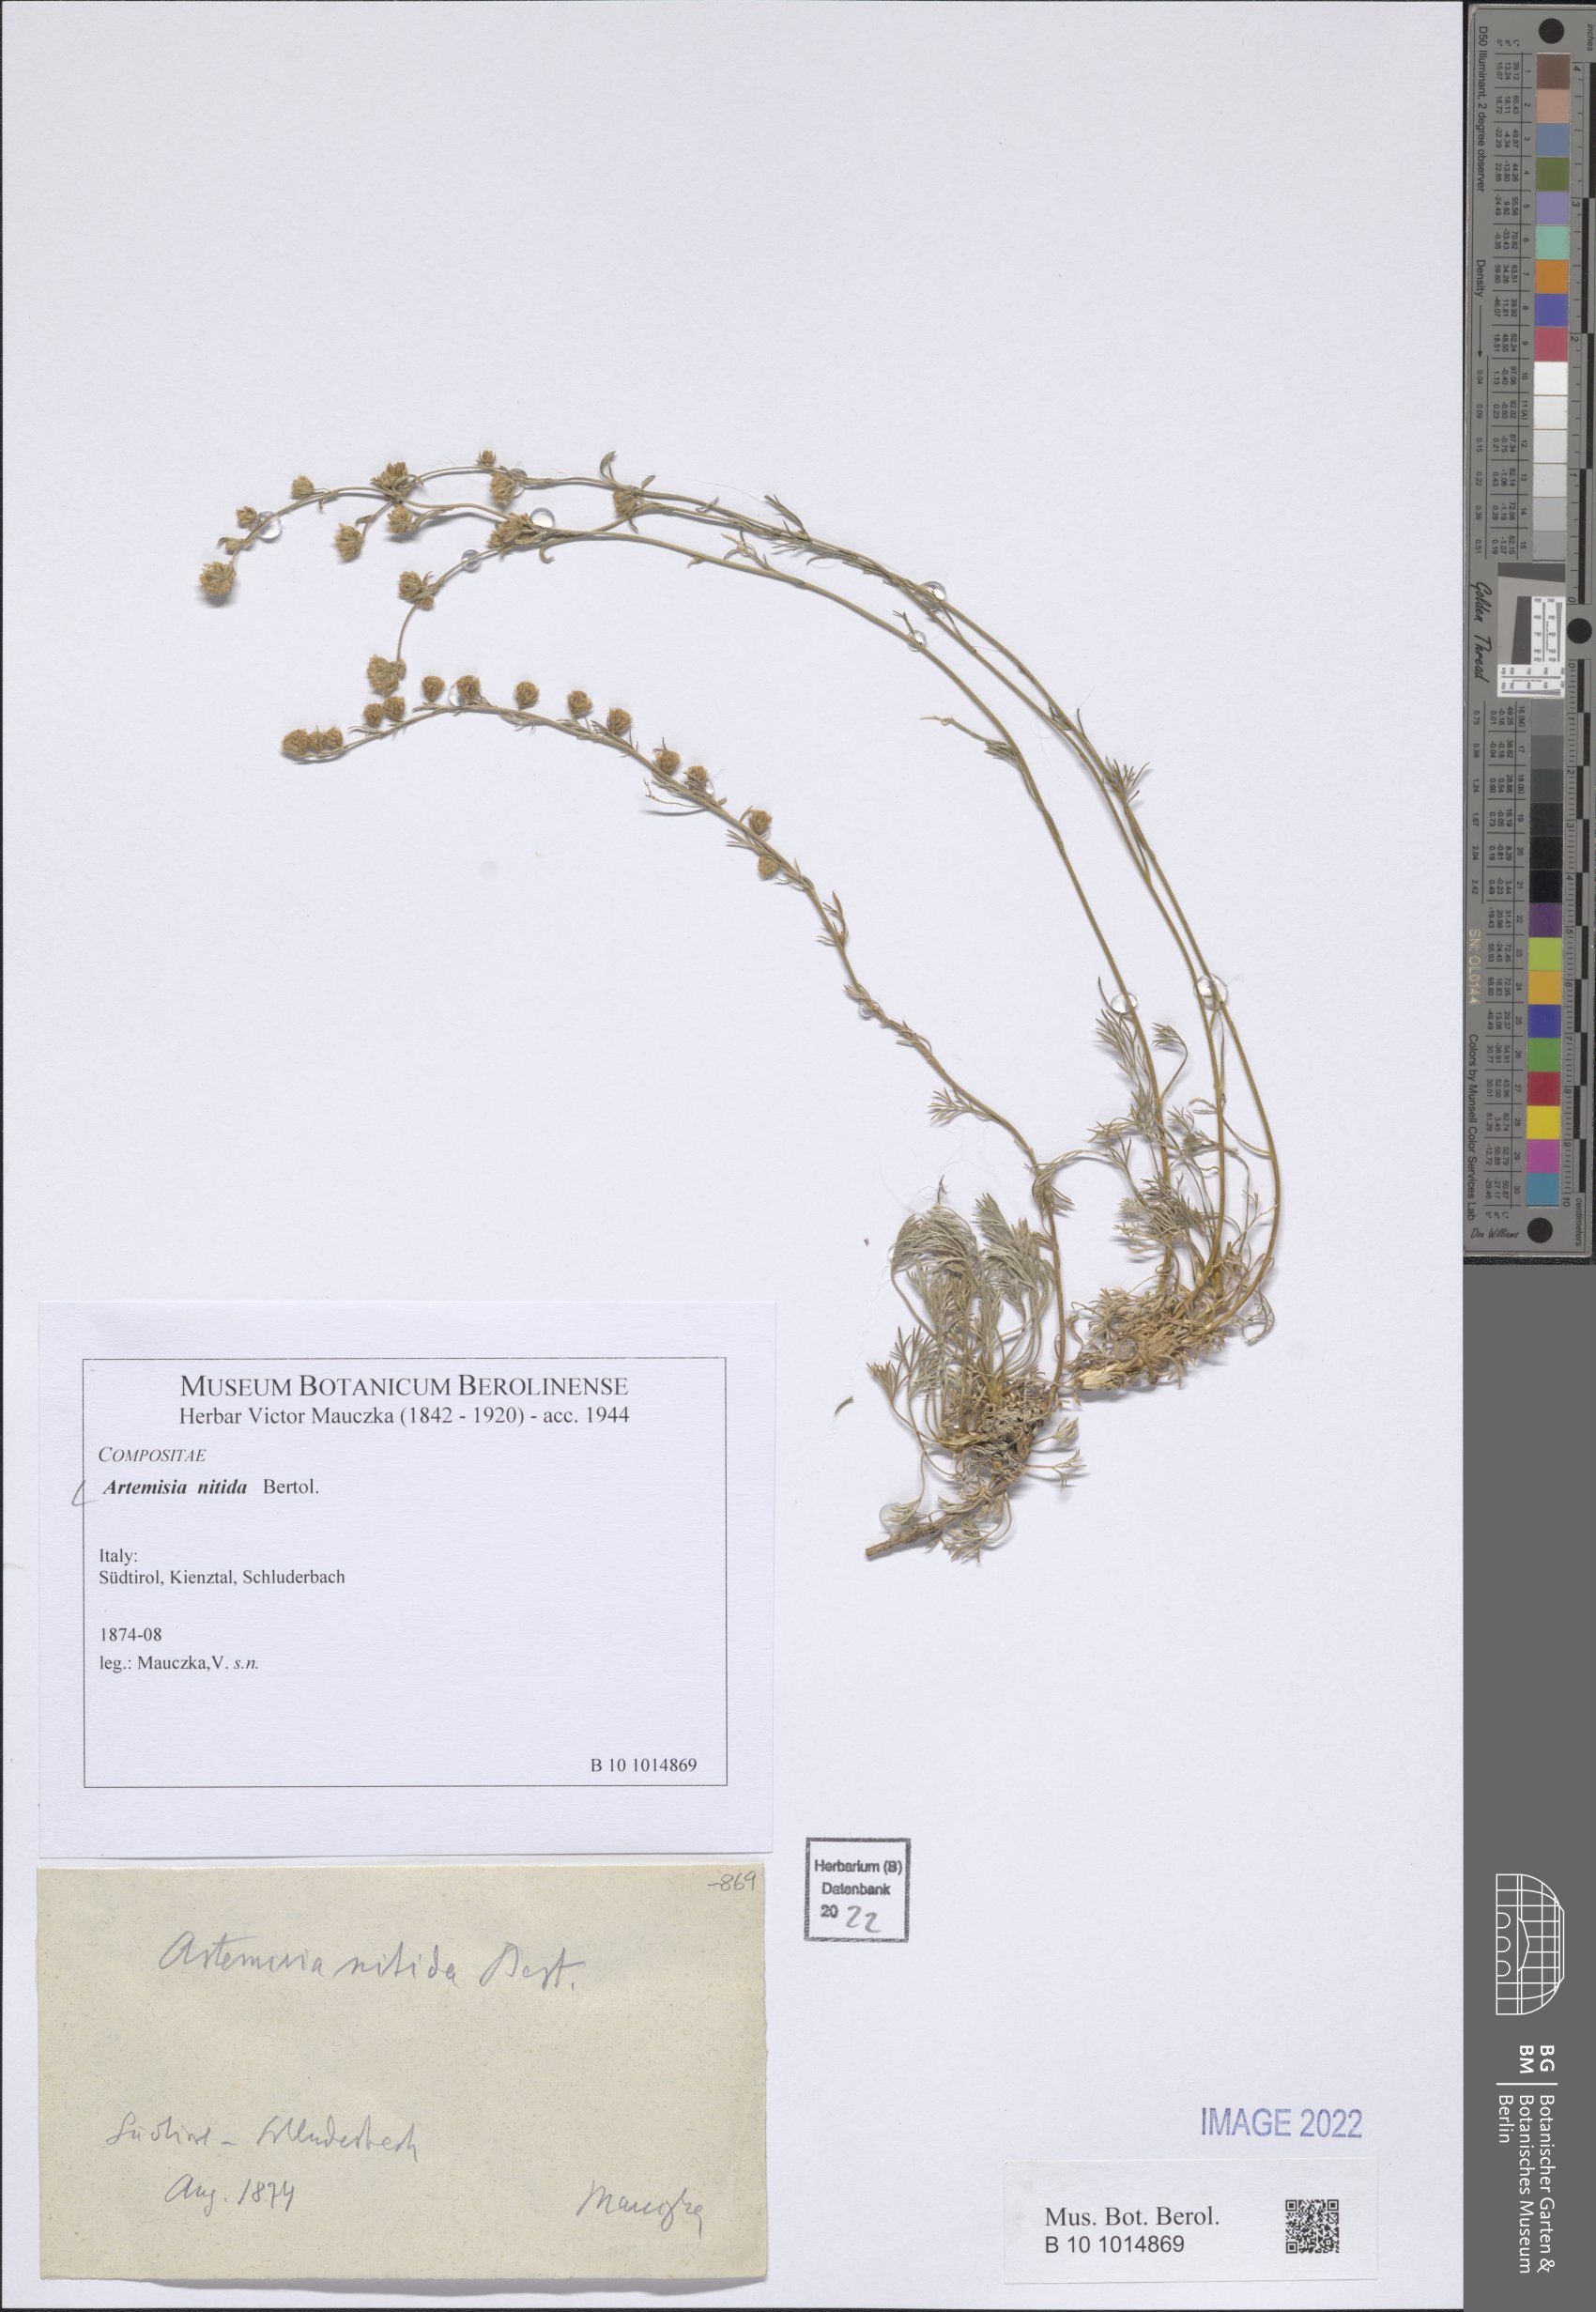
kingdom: Plantae
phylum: Tracheophyta
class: Magnoliopsida
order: Asterales
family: Asteraceae
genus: Artemisia
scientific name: Artemisia nitida
